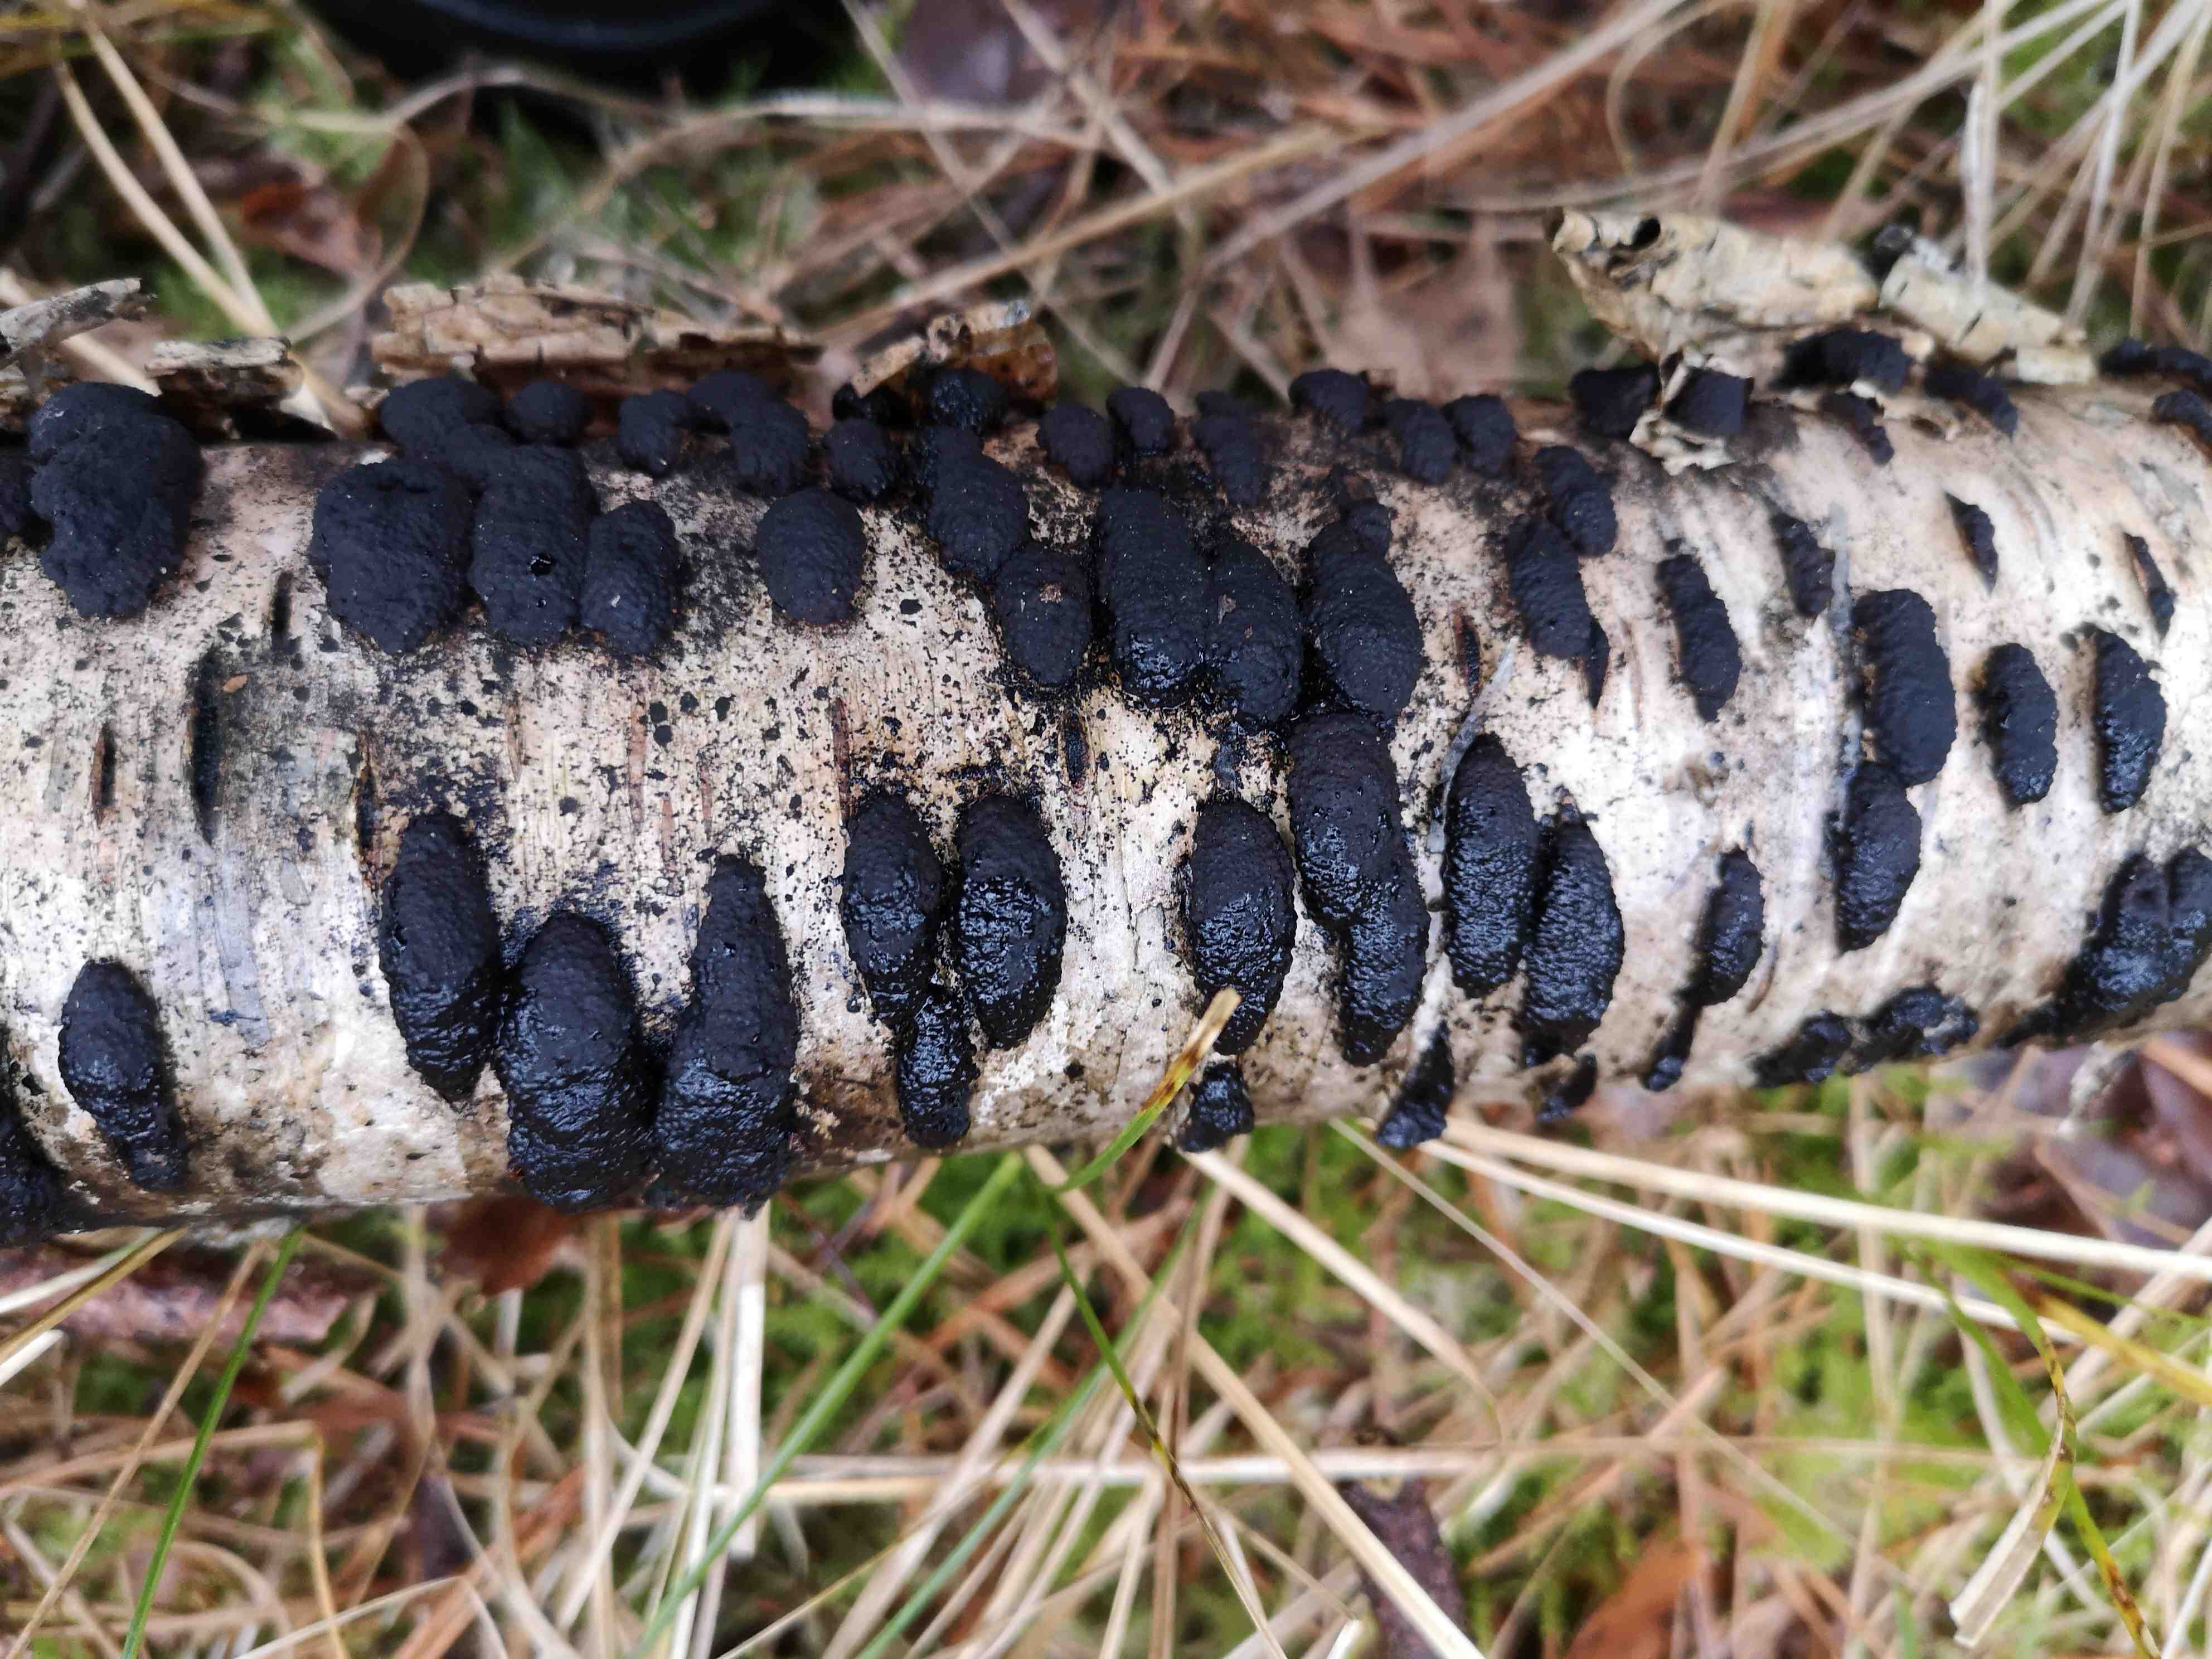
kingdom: Fungi
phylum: Ascomycota
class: Sordariomycetes
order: Xylariales
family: Hypoxylaceae
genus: Jackrogersella
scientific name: Jackrogersella multiformis
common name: foranderlig kulbær
